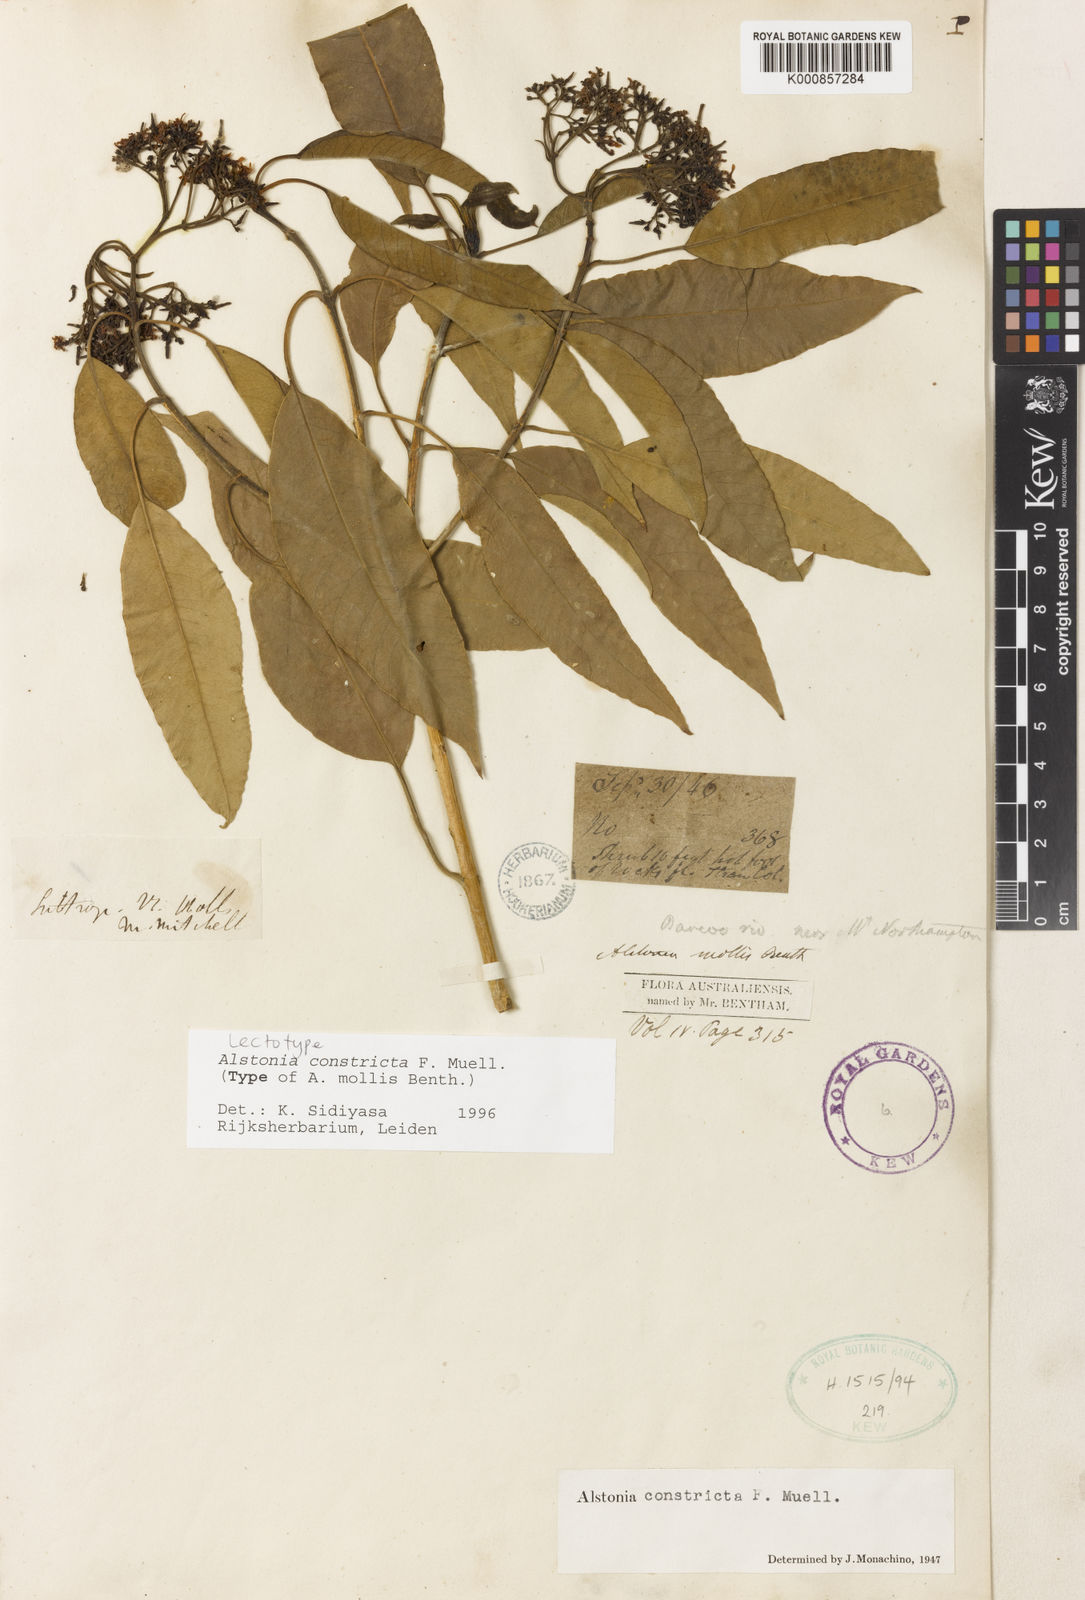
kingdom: Plantae
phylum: Tracheophyta
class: Magnoliopsida
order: Gentianales
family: Apocynaceae
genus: Alstonia
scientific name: Alstonia mollis
